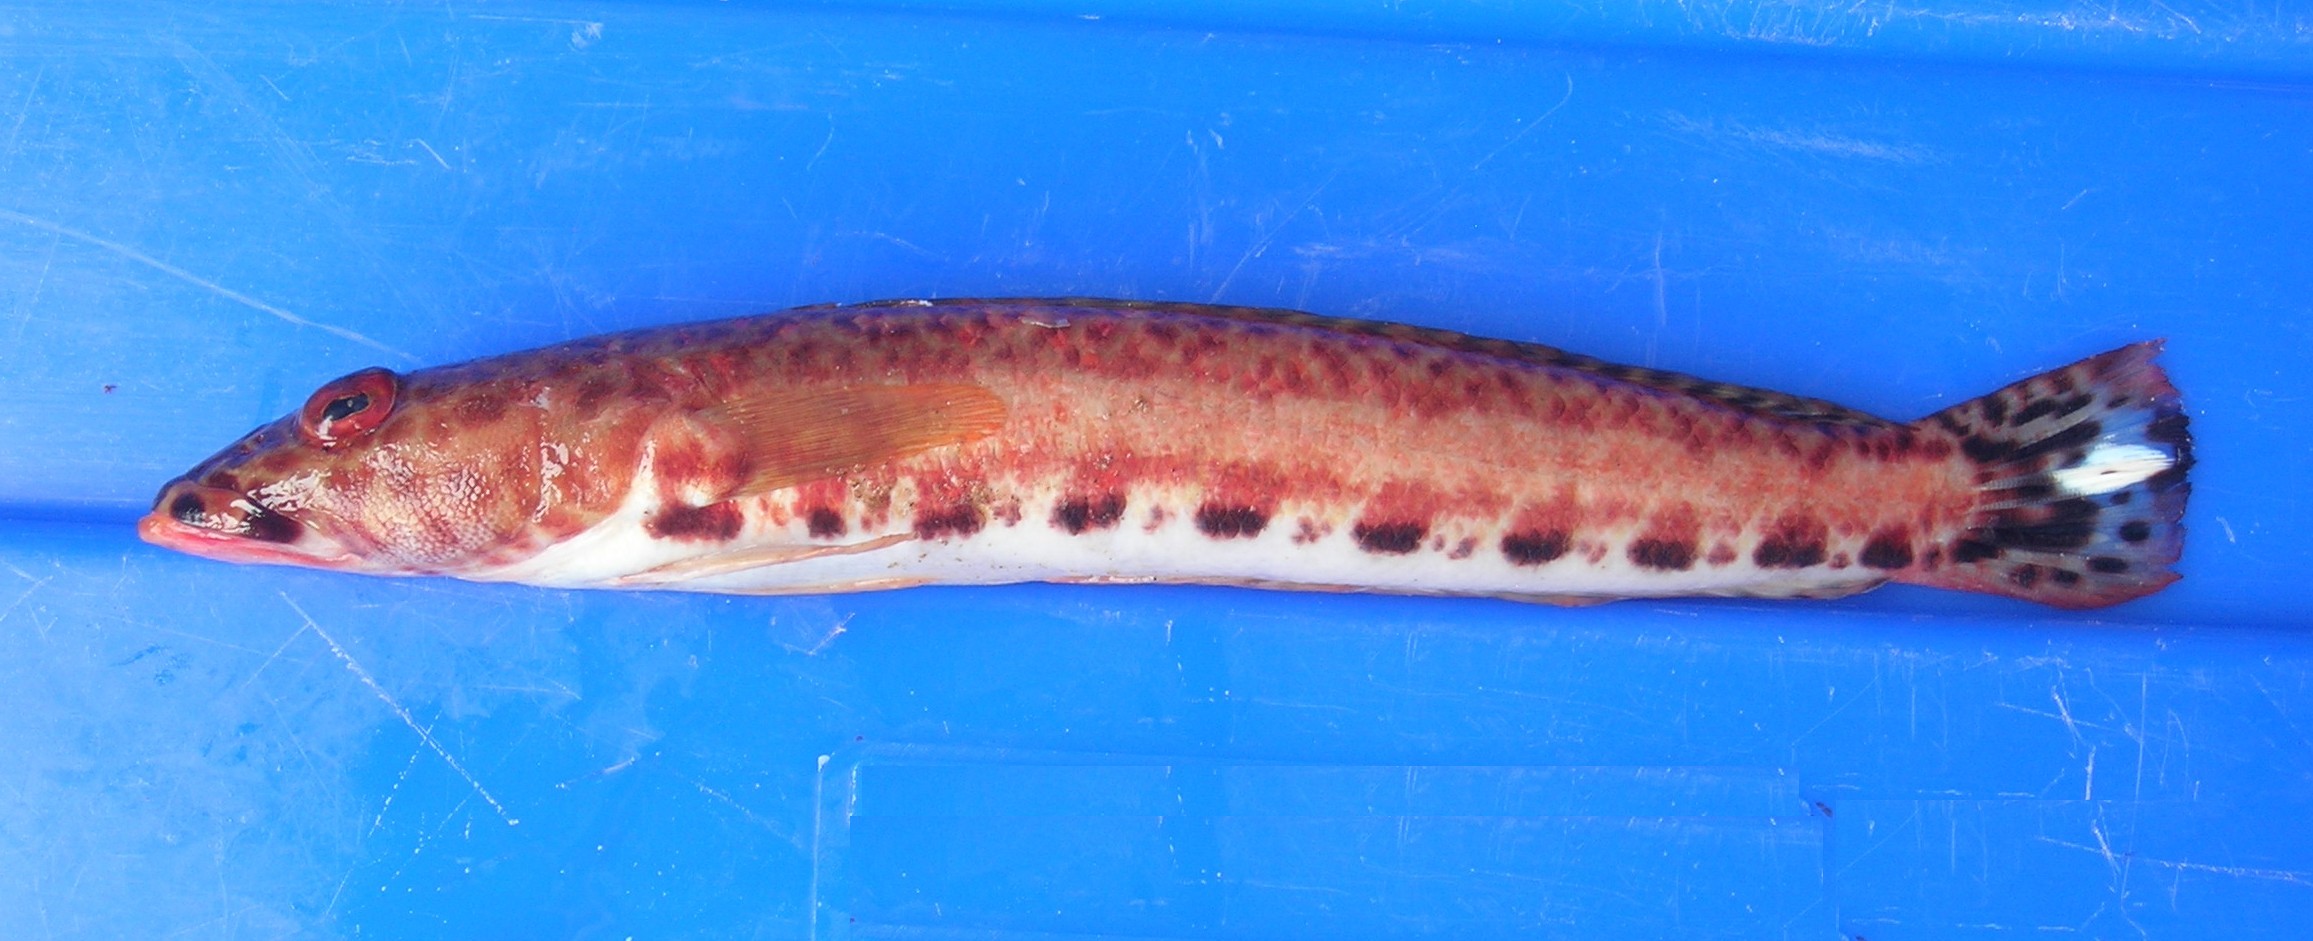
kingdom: Animalia
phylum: Chordata
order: Perciformes
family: Pinguipedidae
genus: Parapercis
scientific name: Parapercis albiventer
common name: Whitebelly sandperch
